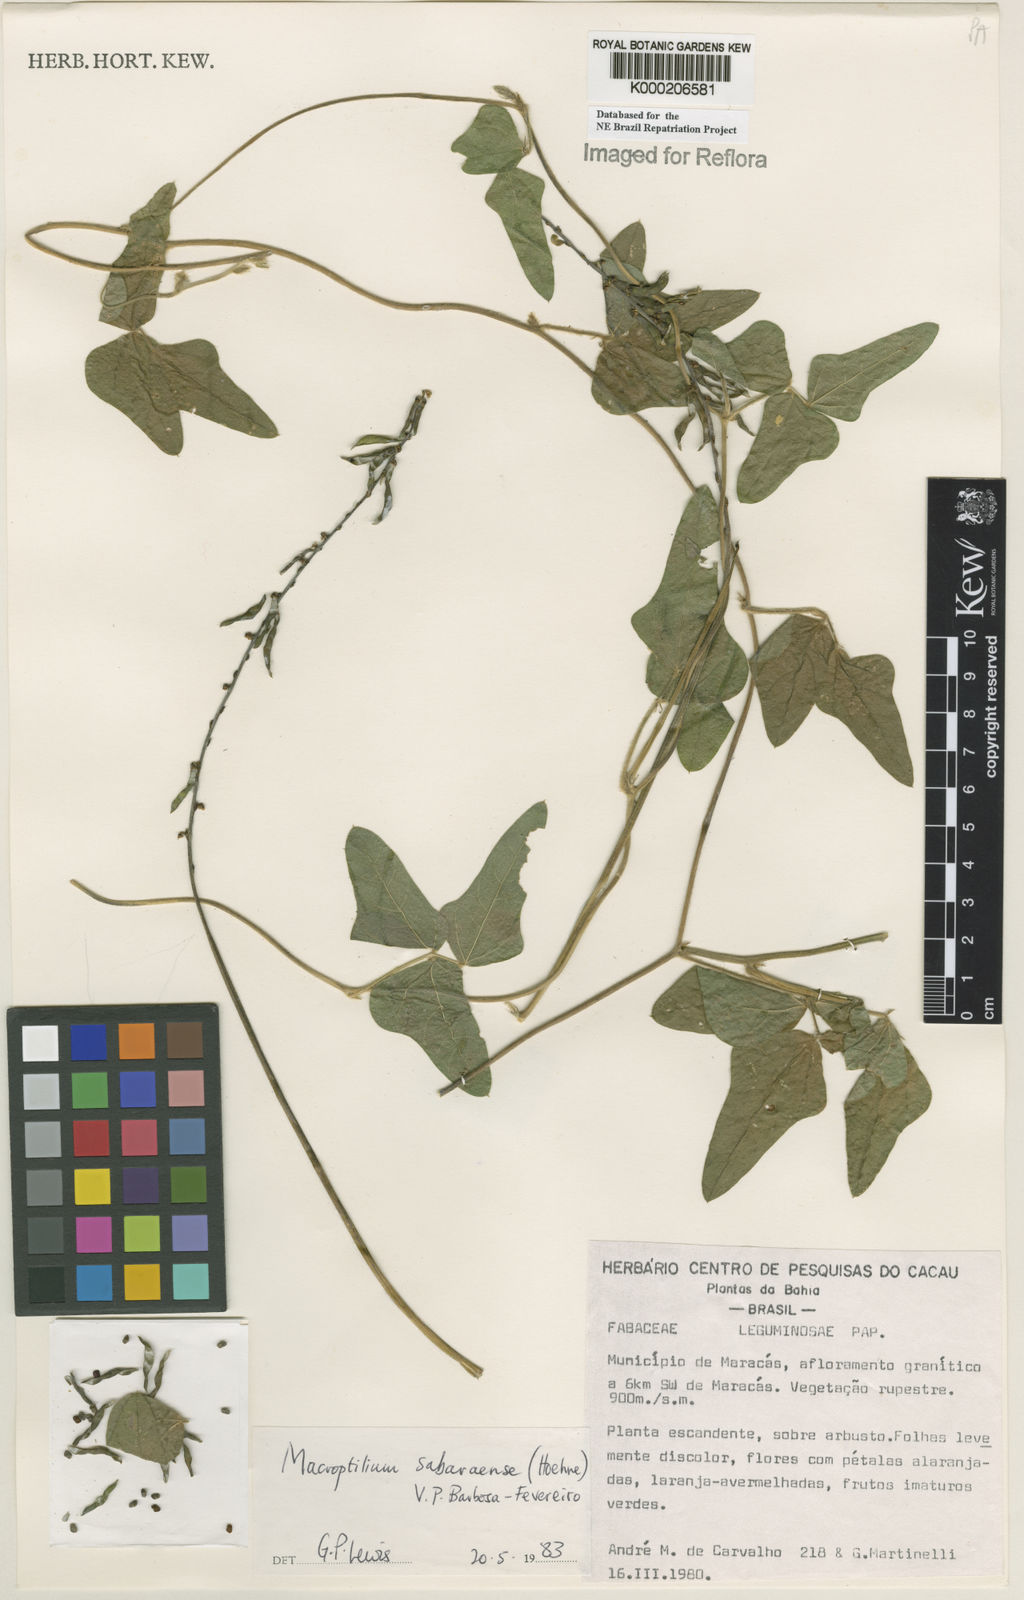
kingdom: Plantae
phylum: Tracheophyta
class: Magnoliopsida
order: Fabales
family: Fabaceae
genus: Macroptilium
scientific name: Macroptilium sabaraense
